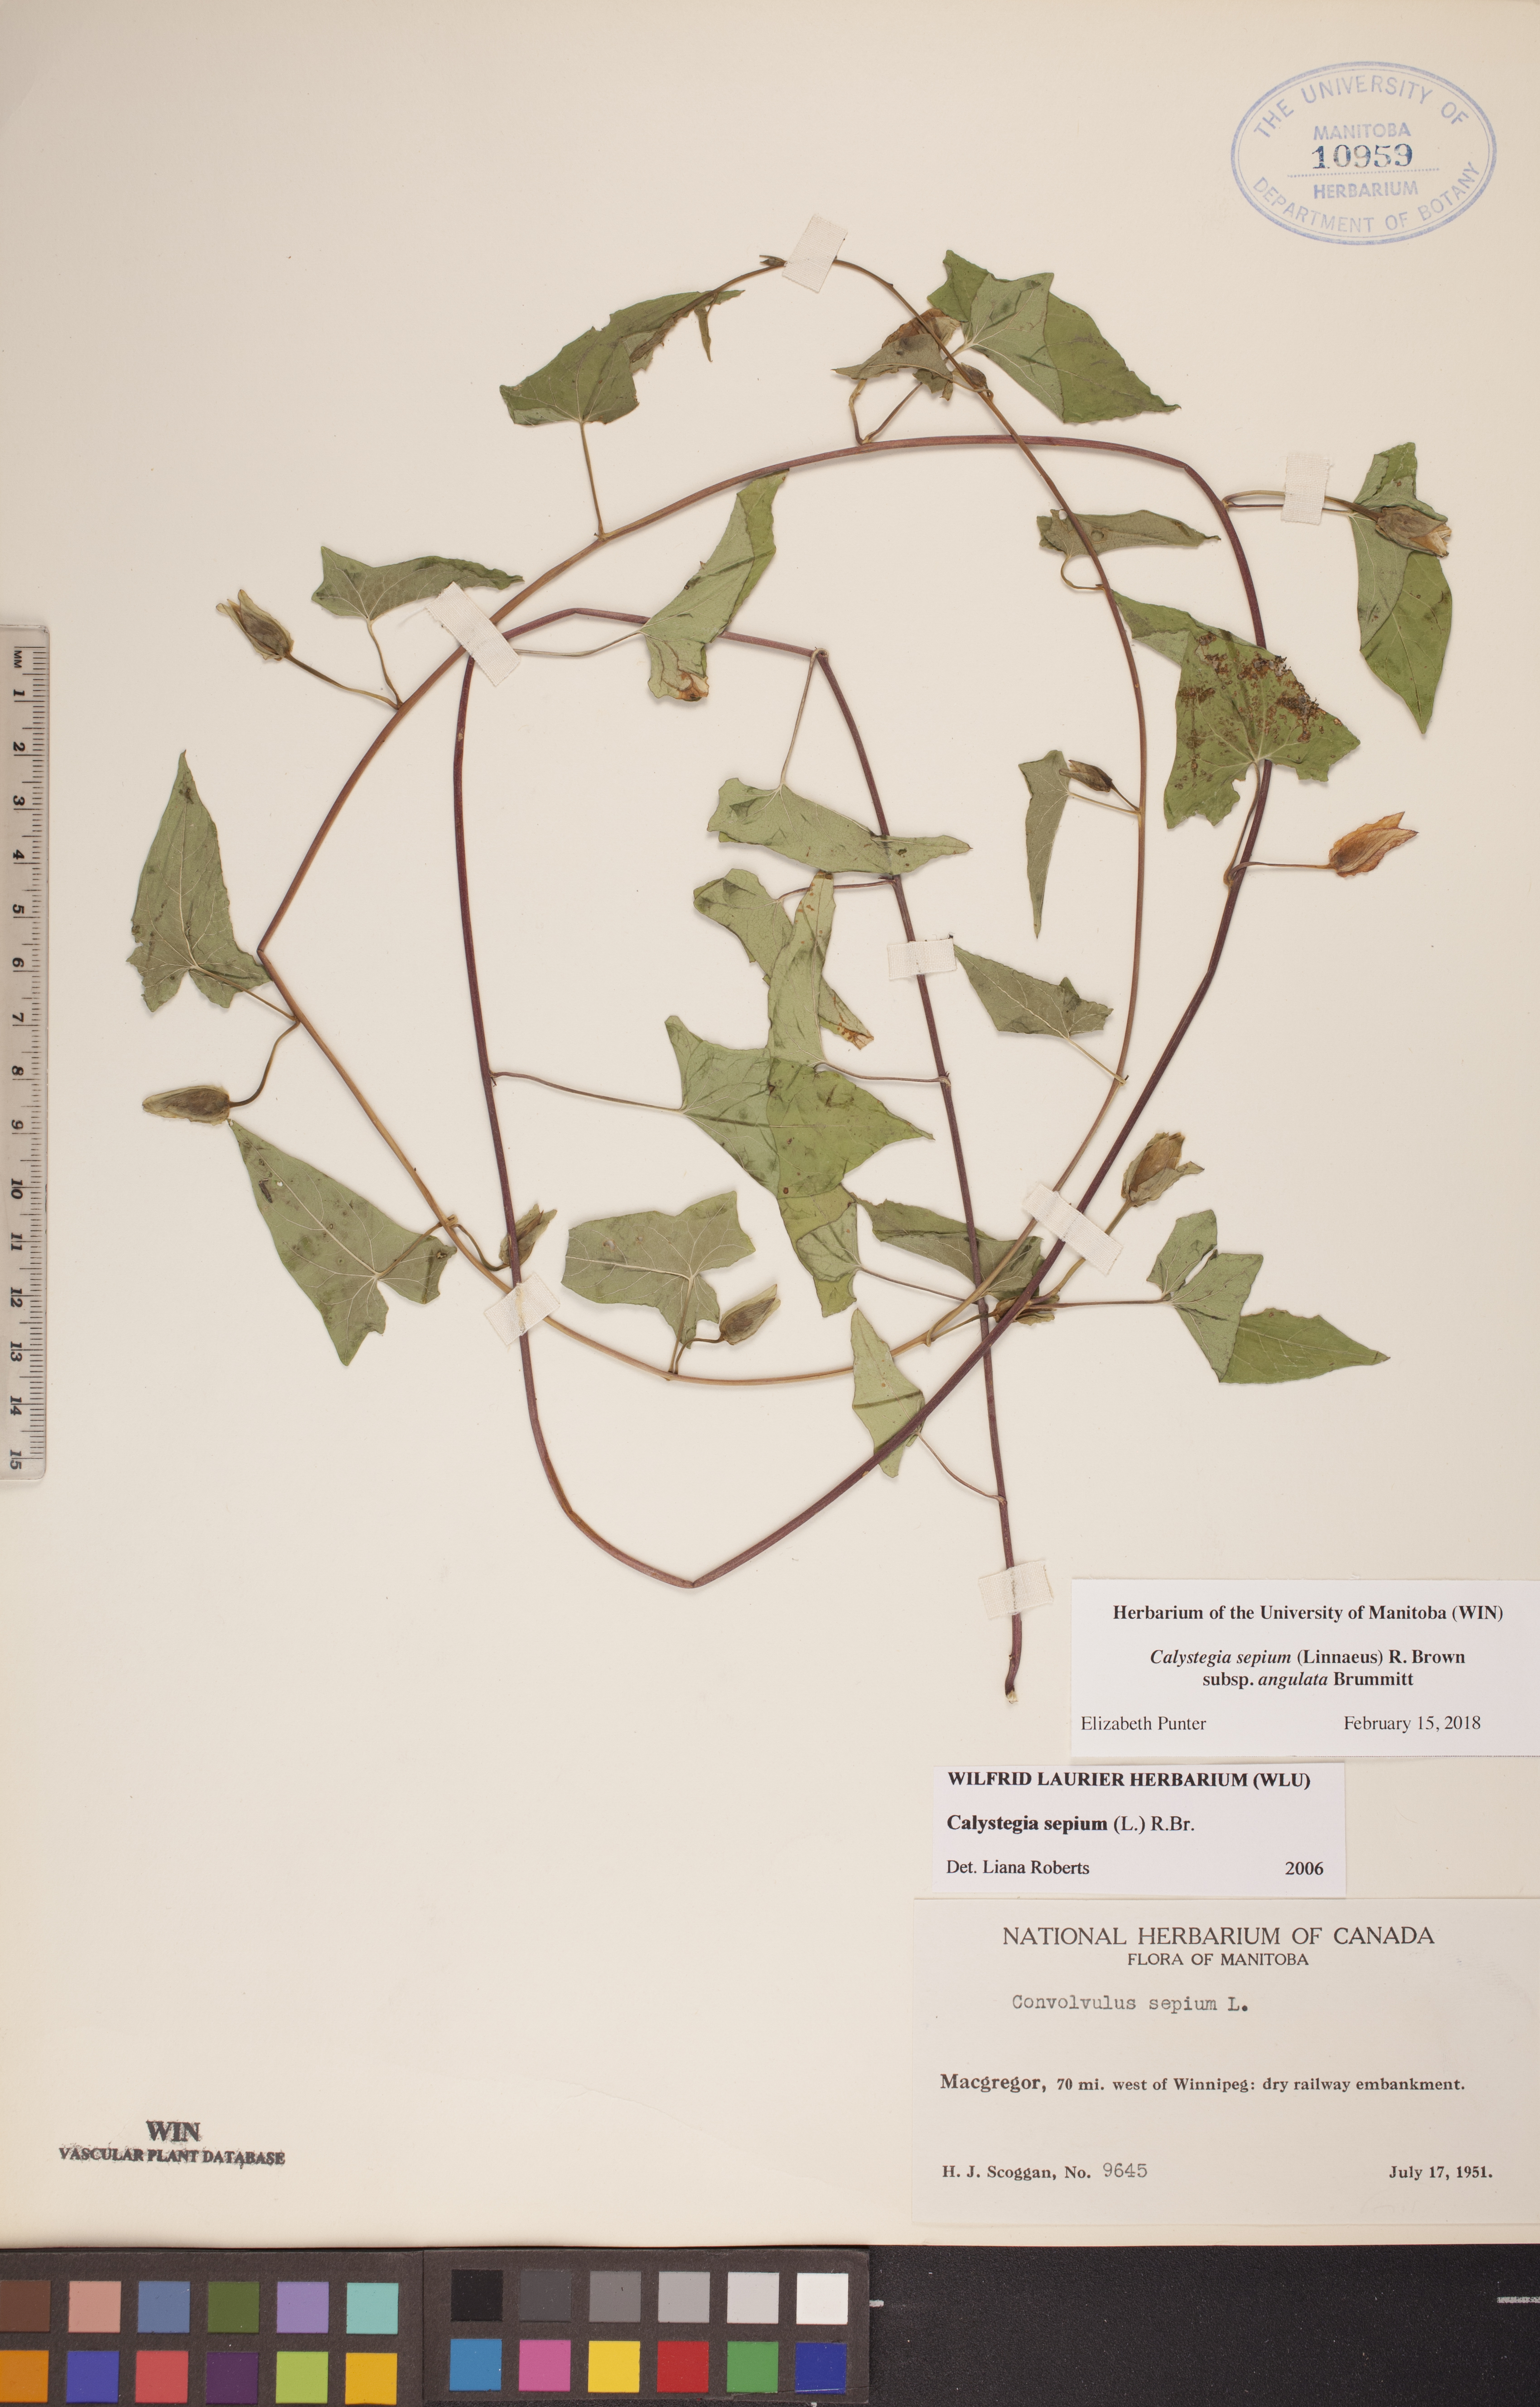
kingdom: Plantae
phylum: Tracheophyta
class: Magnoliopsida
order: Solanales
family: Convolvulaceae
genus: Calystegia
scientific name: Calystegia sepium
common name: Hedge bindweed
